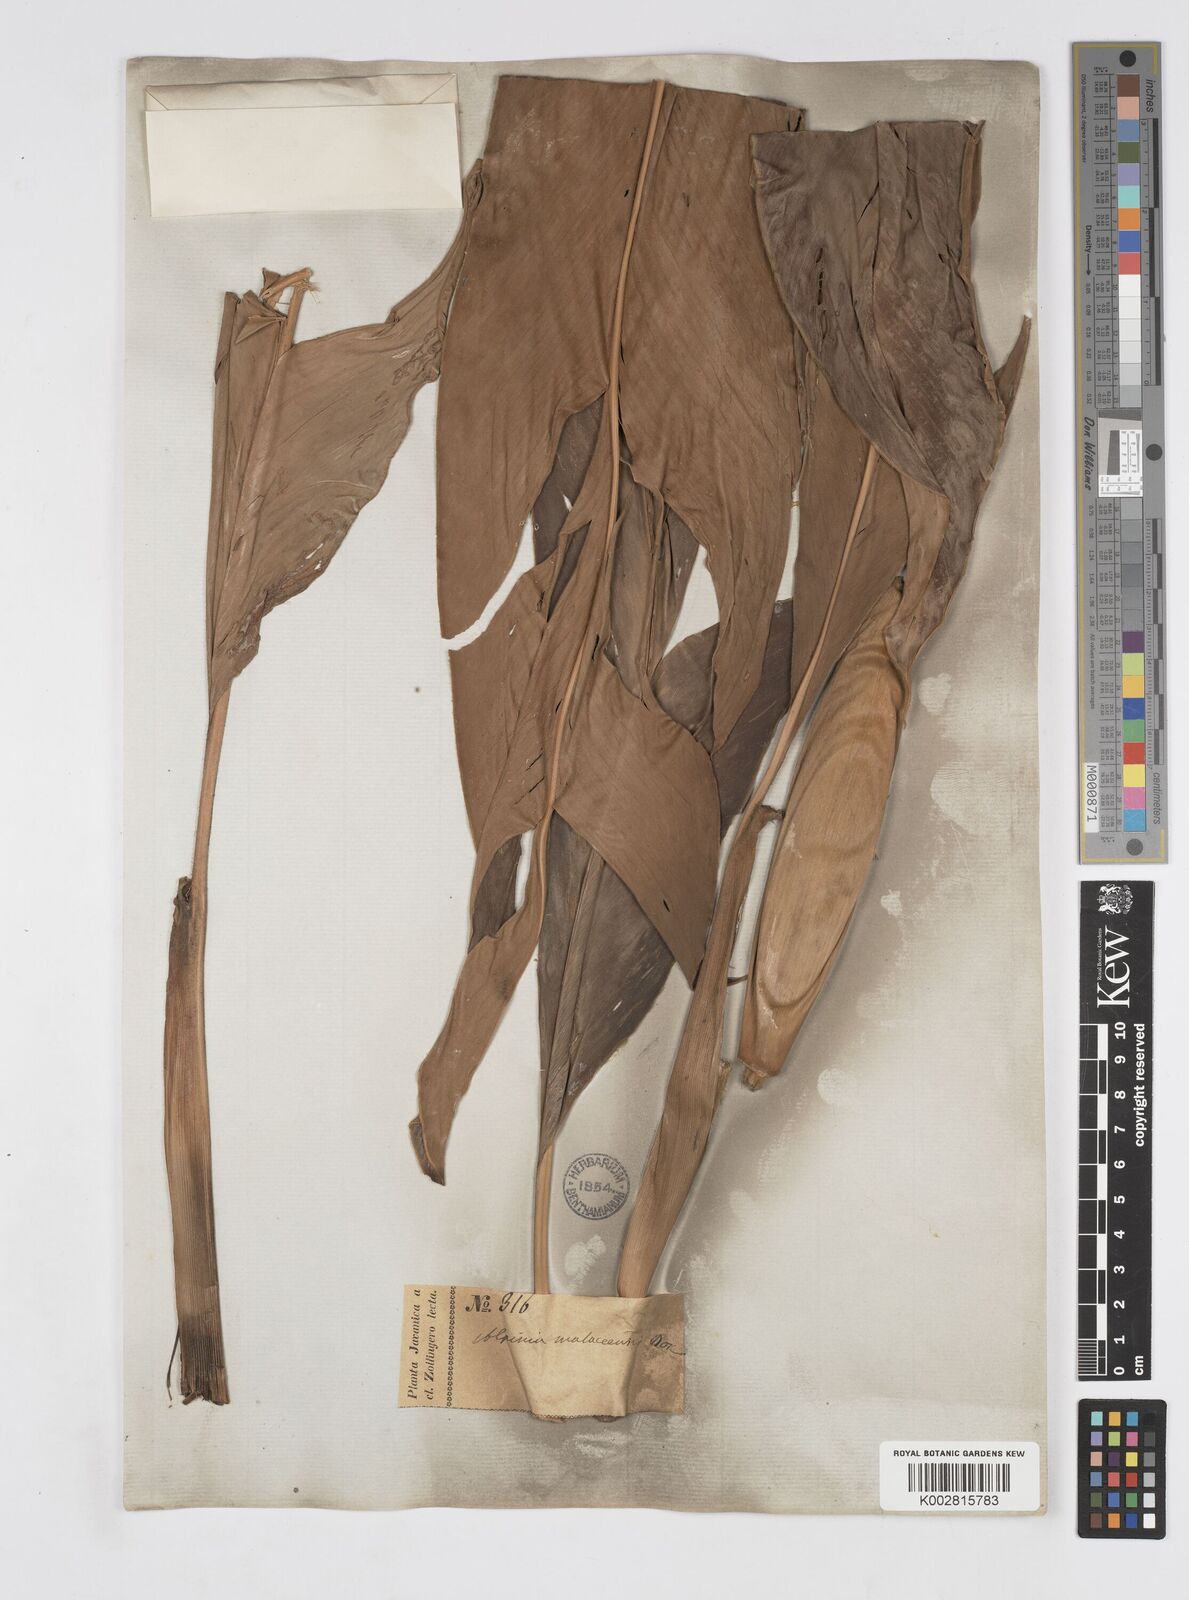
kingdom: Plantae
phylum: Tracheophyta
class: Liliopsida
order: Zingiberales
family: Zingiberaceae
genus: Alpinia
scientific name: Alpinia malaccensis
